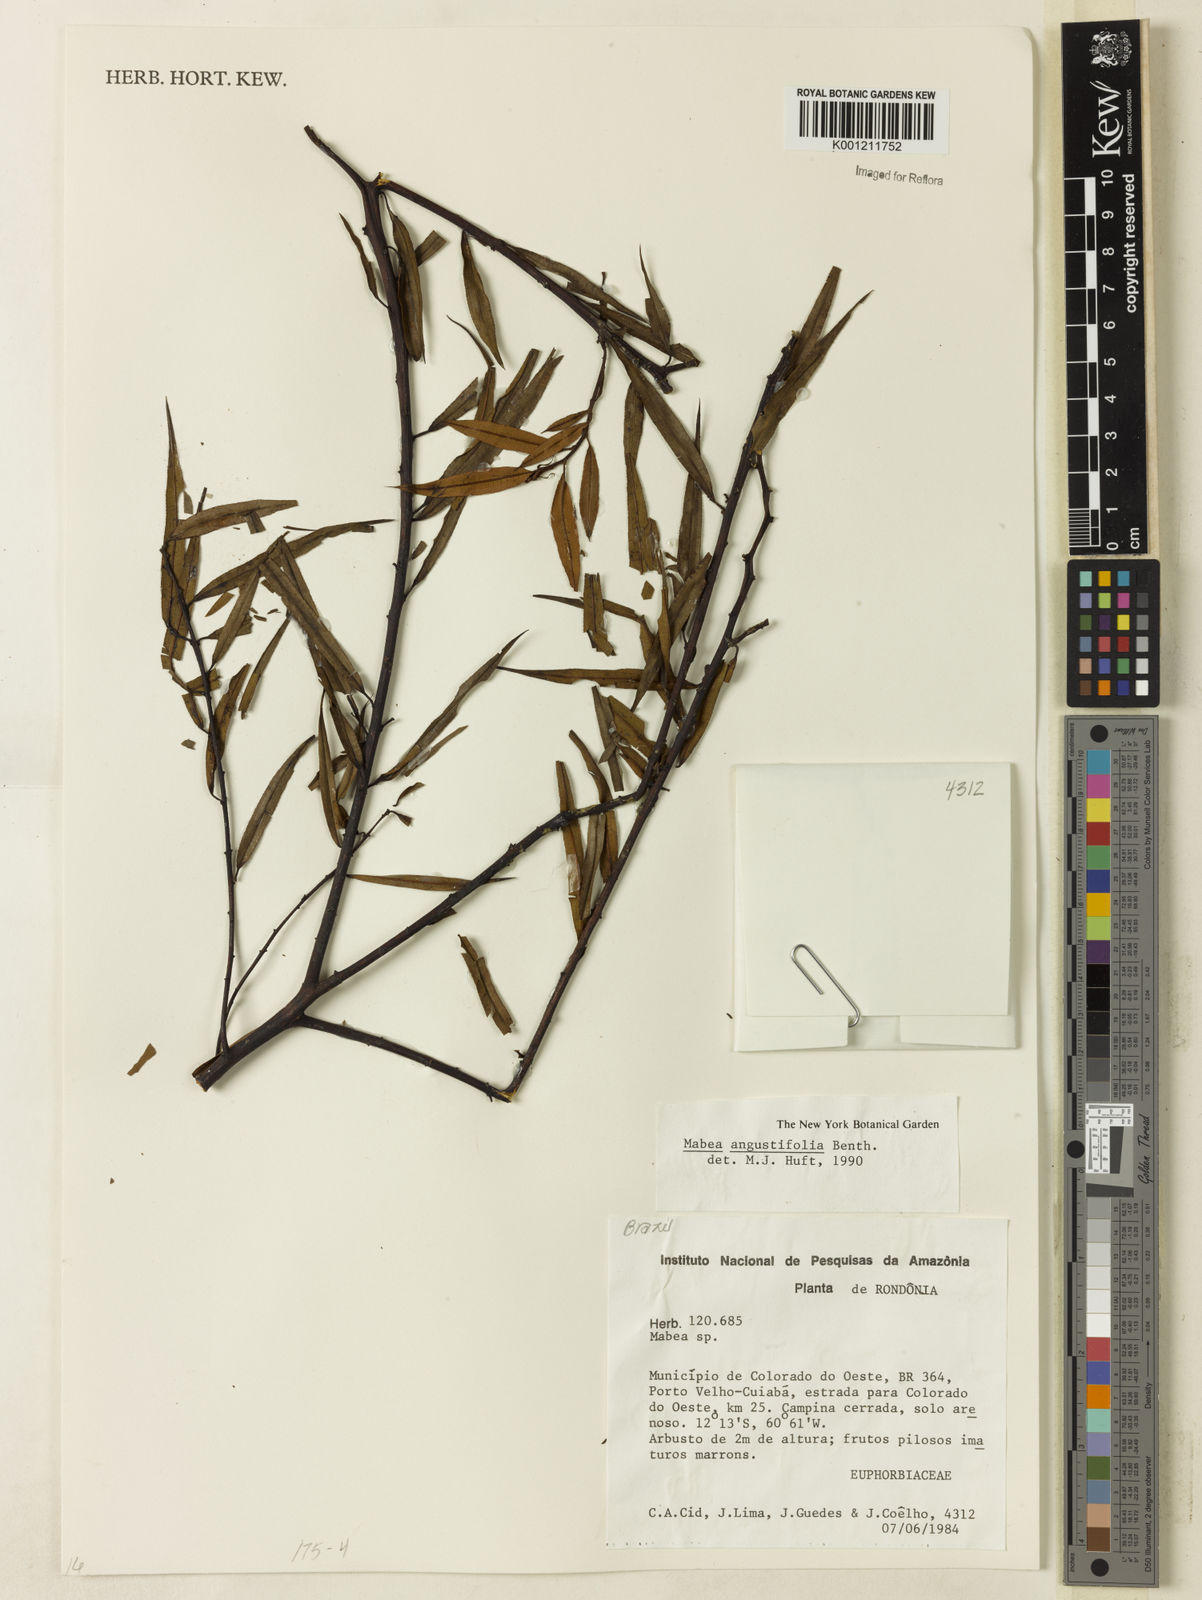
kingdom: Plantae
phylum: Tracheophyta
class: Magnoliopsida
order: Malpighiales
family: Euphorbiaceae
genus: Mabea
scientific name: Mabea angustifolia
